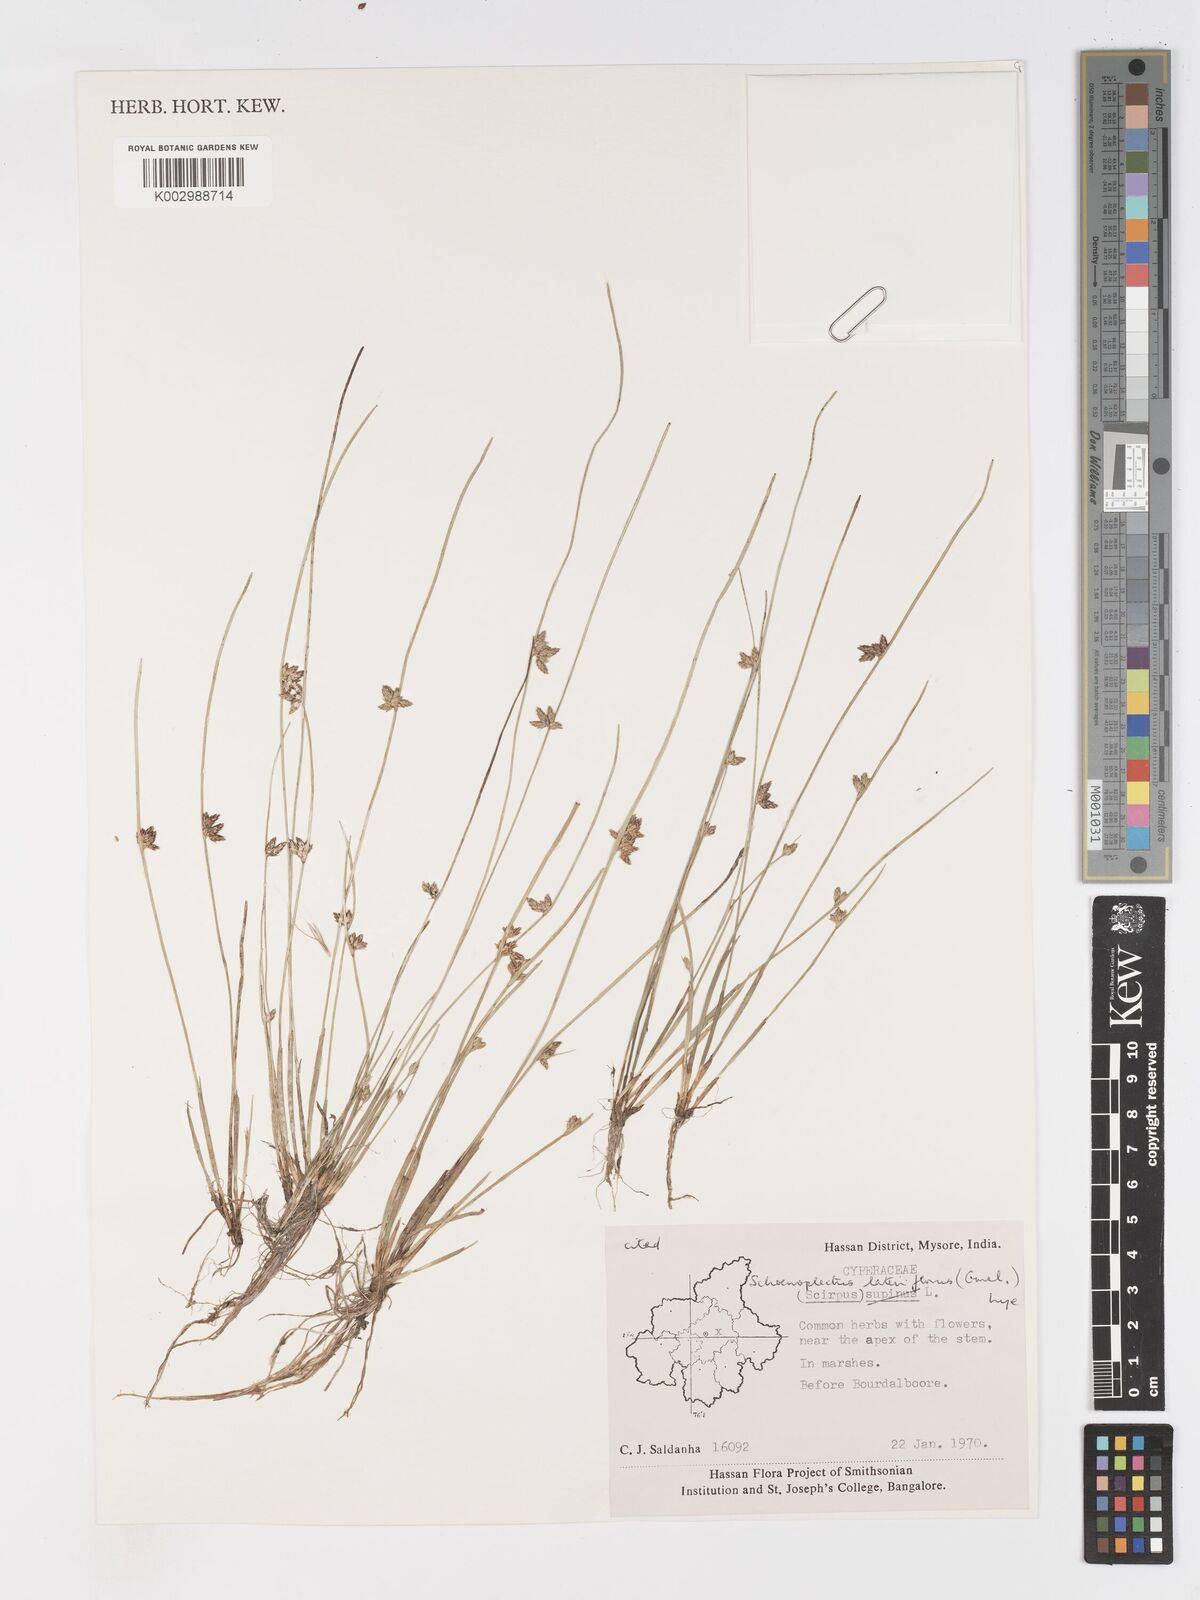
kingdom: Plantae
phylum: Tracheophyta
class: Liliopsida
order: Poales
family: Cyperaceae
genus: Schoenoplectiella
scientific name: Schoenoplectiella lateriflora
